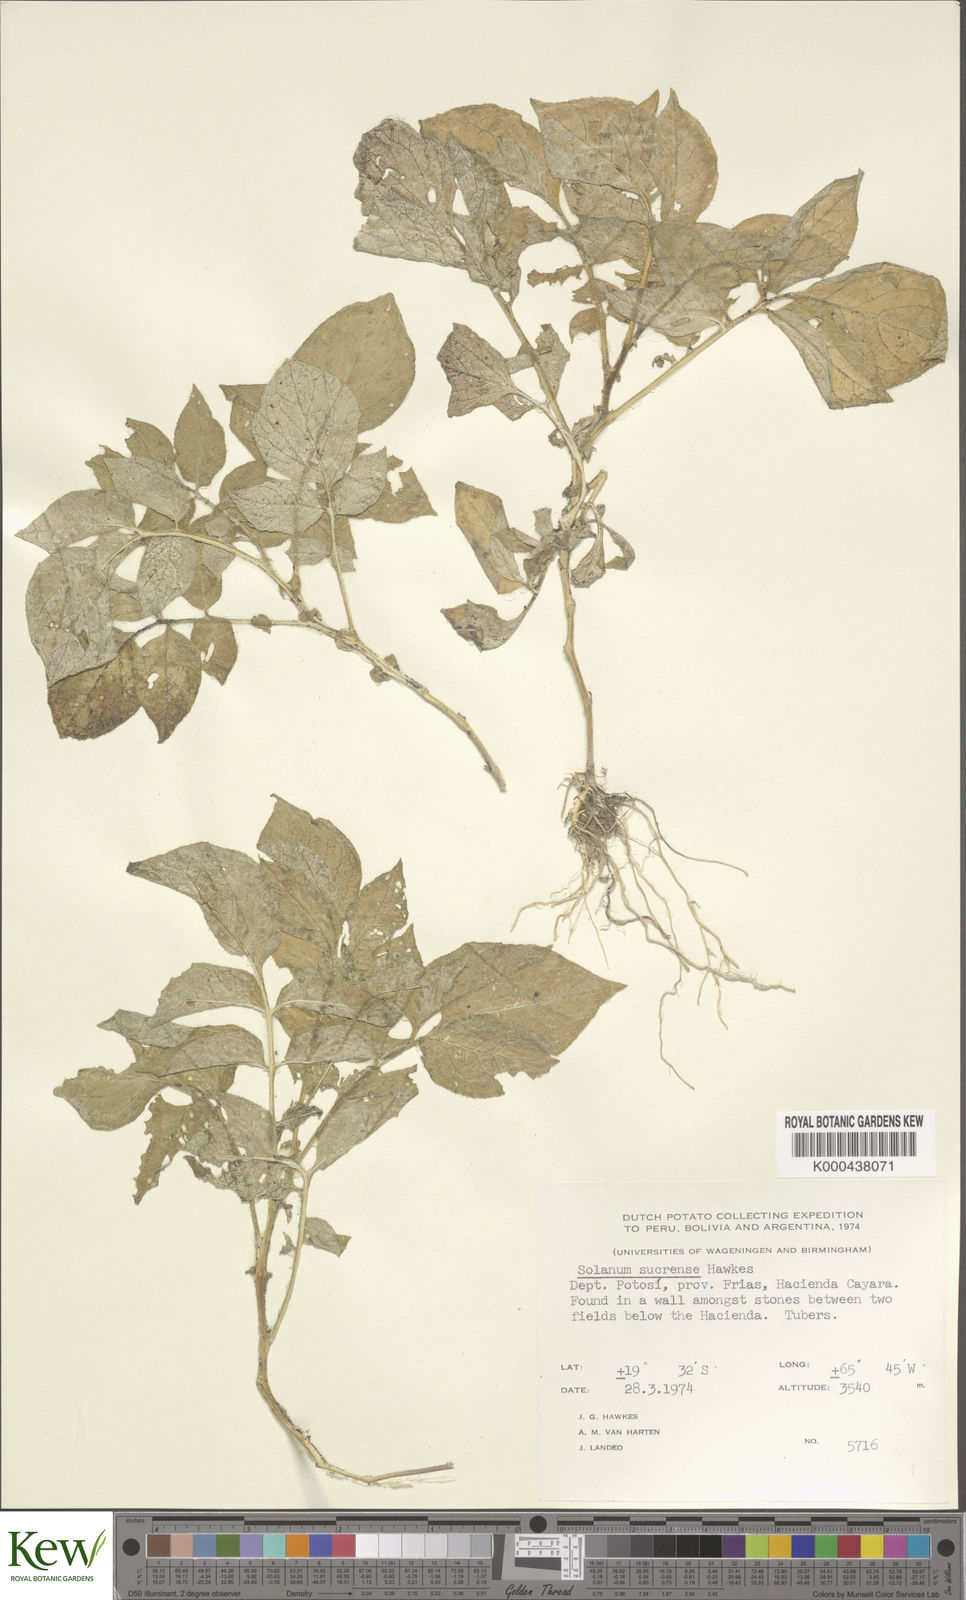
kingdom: Plantae
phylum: Tracheophyta
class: Magnoliopsida
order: Solanales
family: Solanaceae
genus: Solanum
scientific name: Solanum brevicaule
